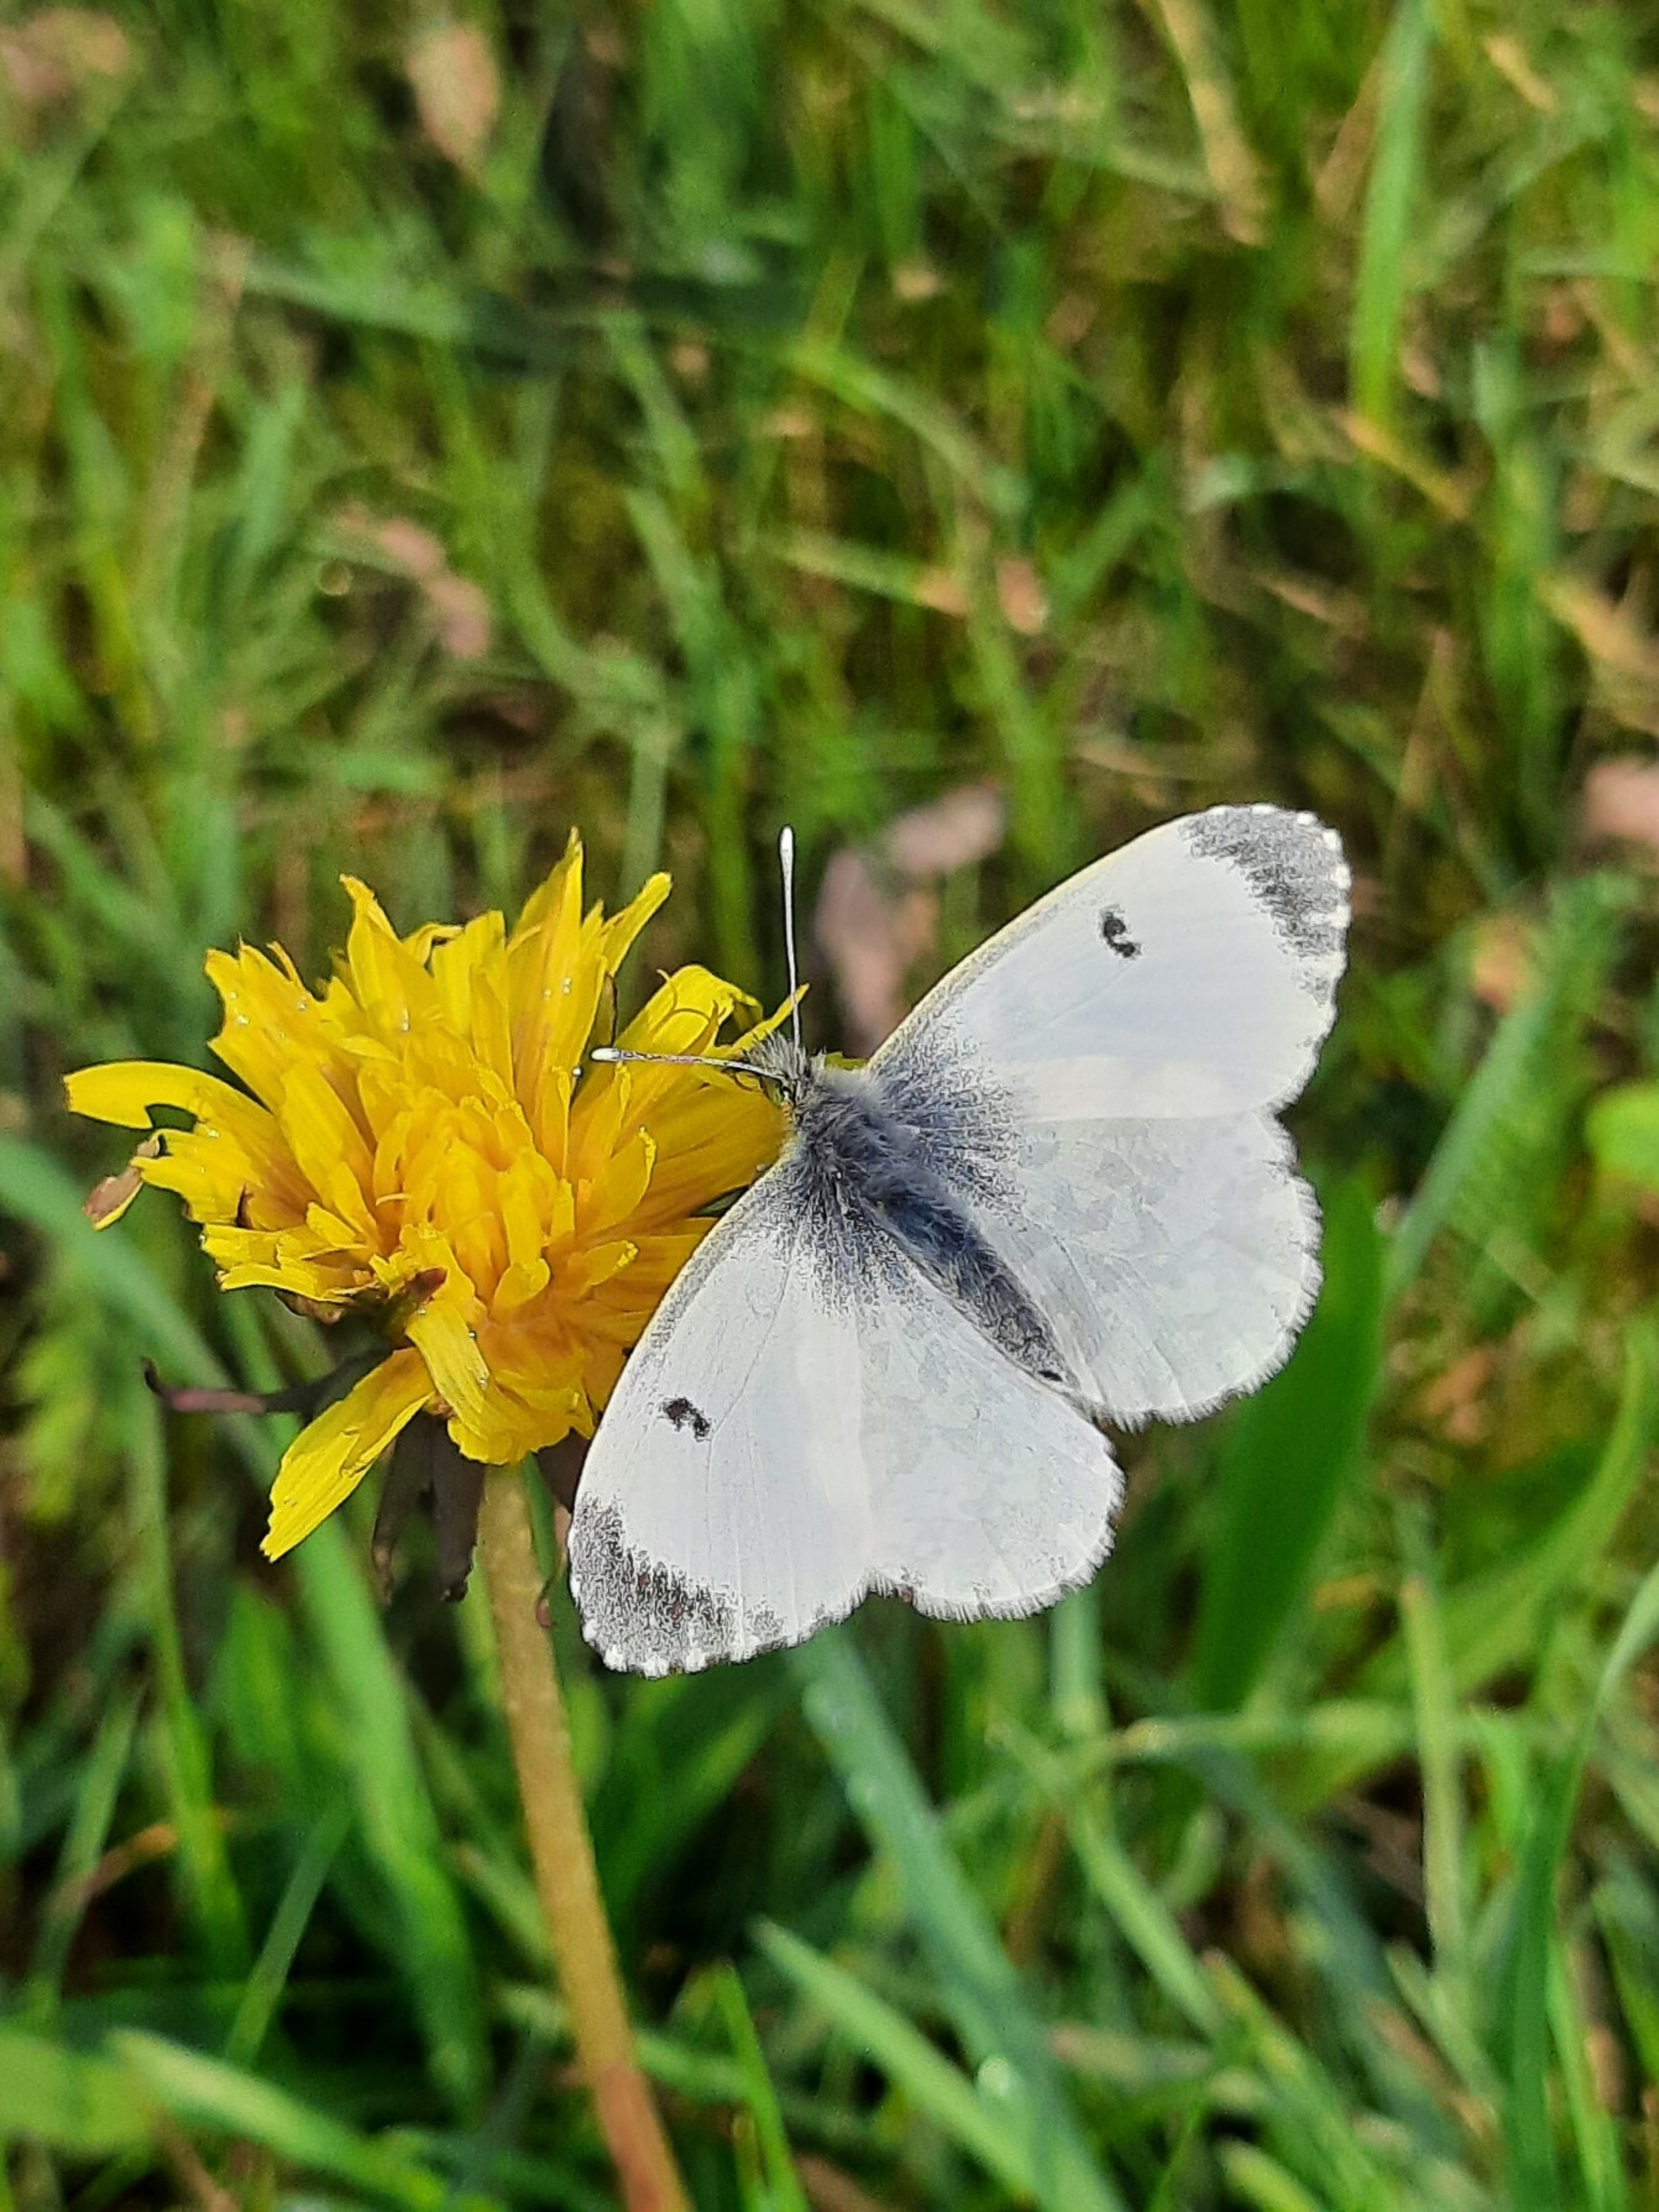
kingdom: Animalia
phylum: Arthropoda
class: Insecta
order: Lepidoptera
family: Pieridae
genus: Anthocharis
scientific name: Anthocharis cardamines
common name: Aurora
